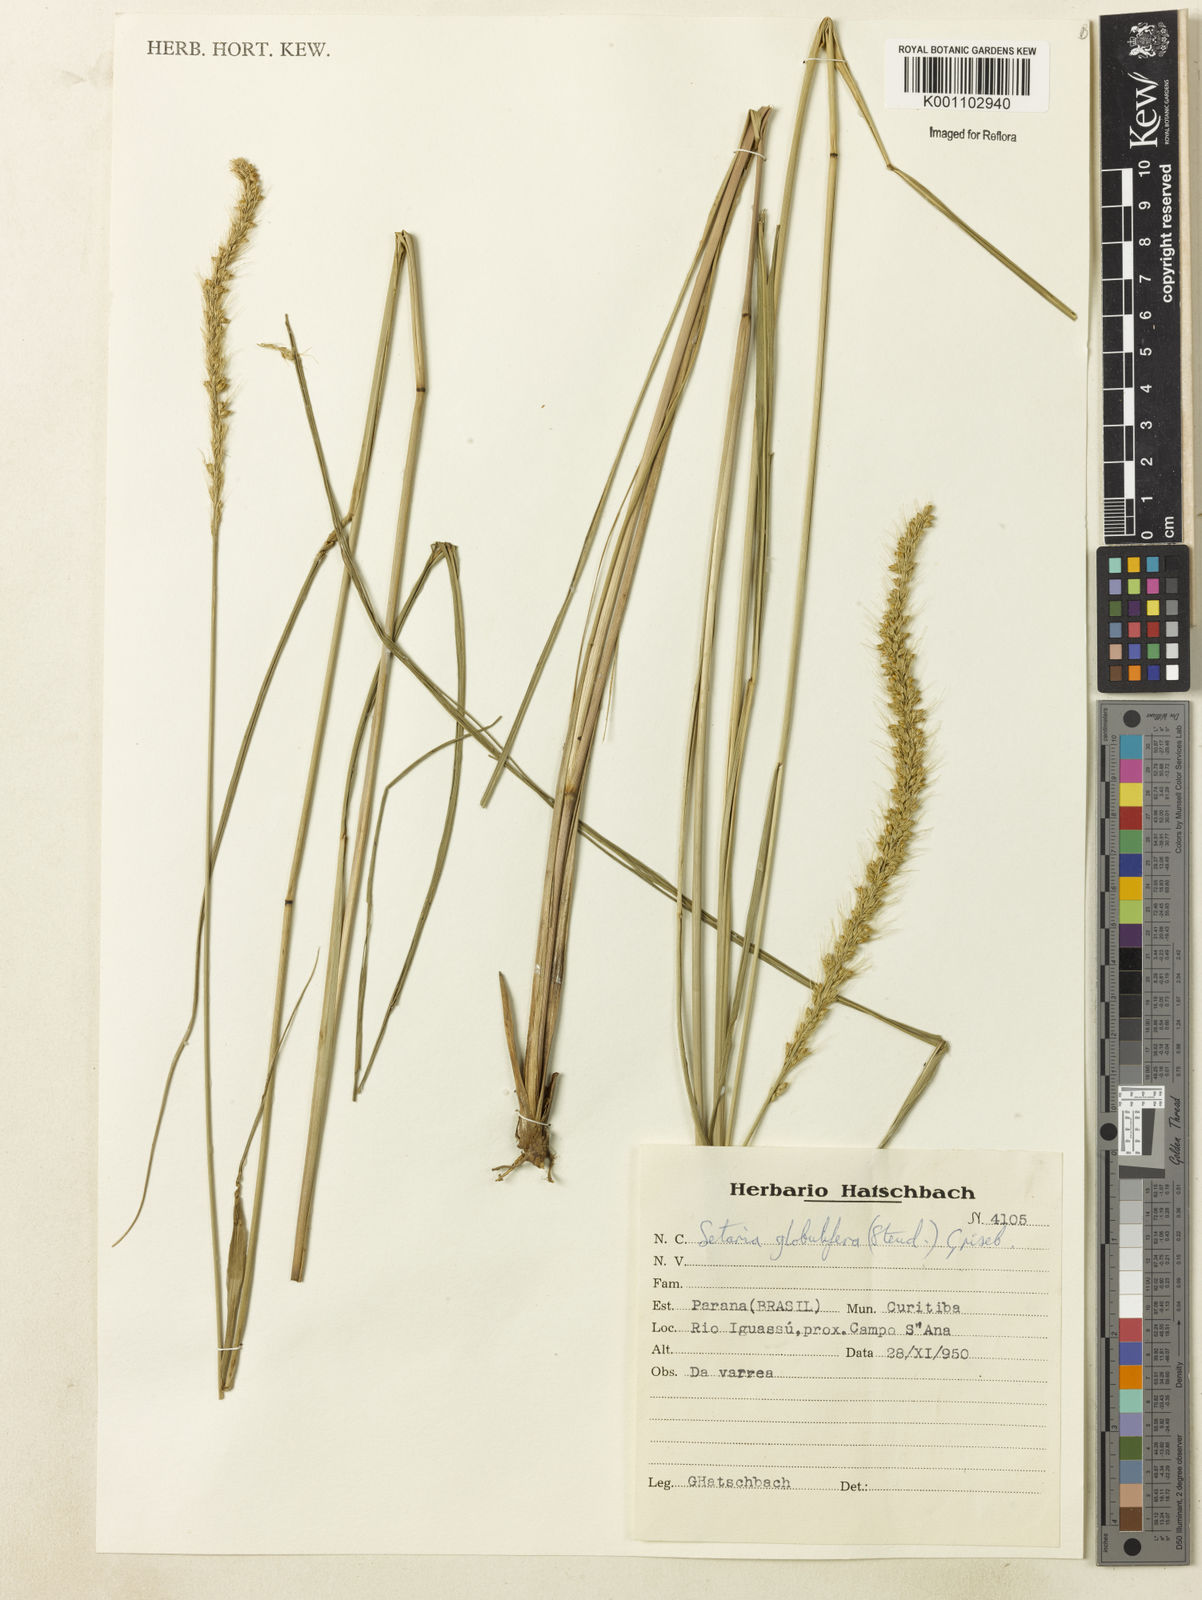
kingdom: Plantae
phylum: Tracheophyta
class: Liliopsida
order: Poales
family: Poaceae
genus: Setaria
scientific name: Setaria globulifera
